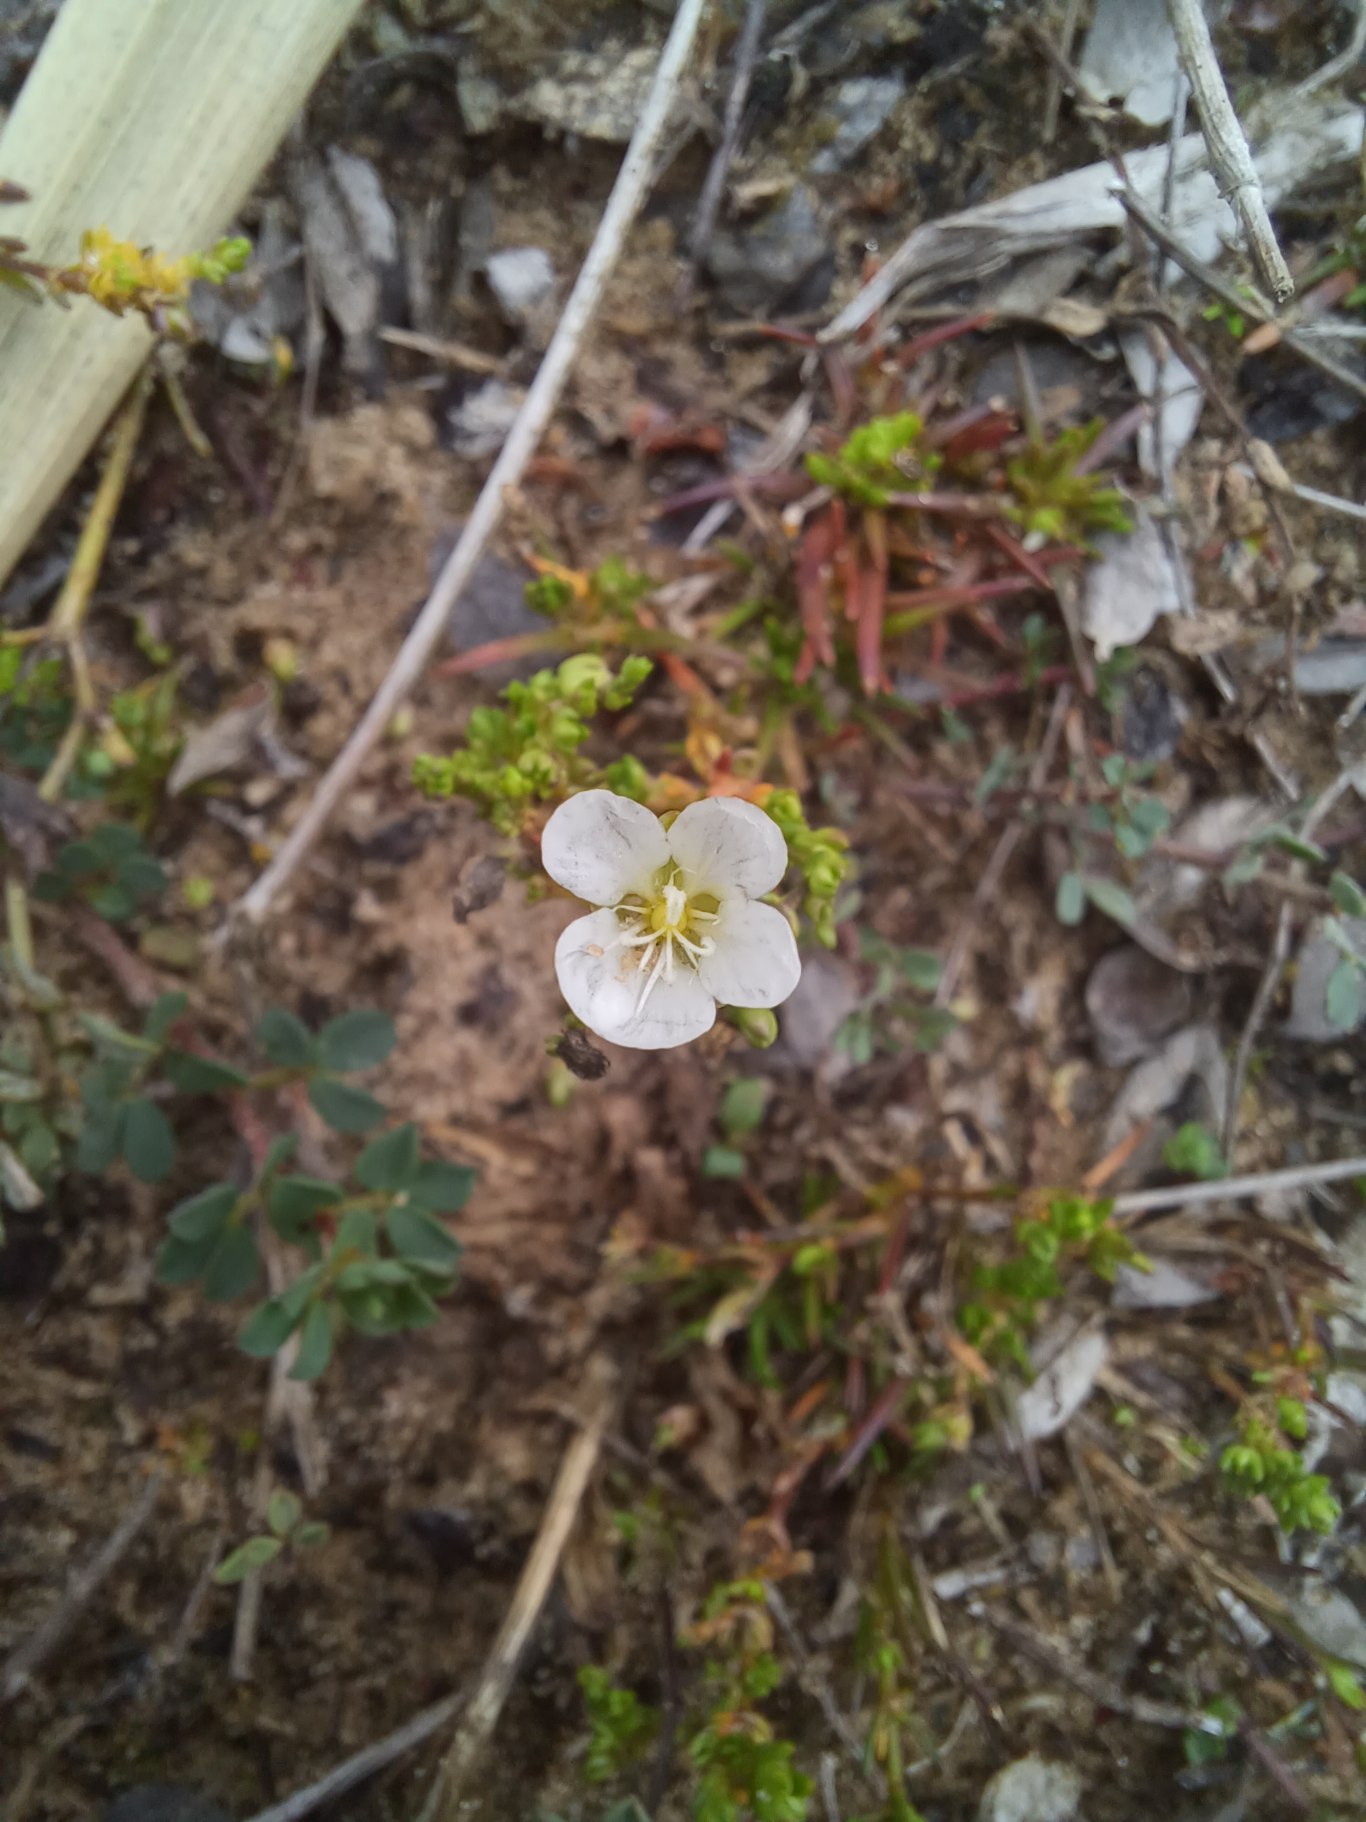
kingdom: Plantae
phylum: Tracheophyta
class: Magnoliopsida
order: Caryophyllales
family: Caryophyllaceae
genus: Sagina
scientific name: Sagina nodosa
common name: Knude-firling
